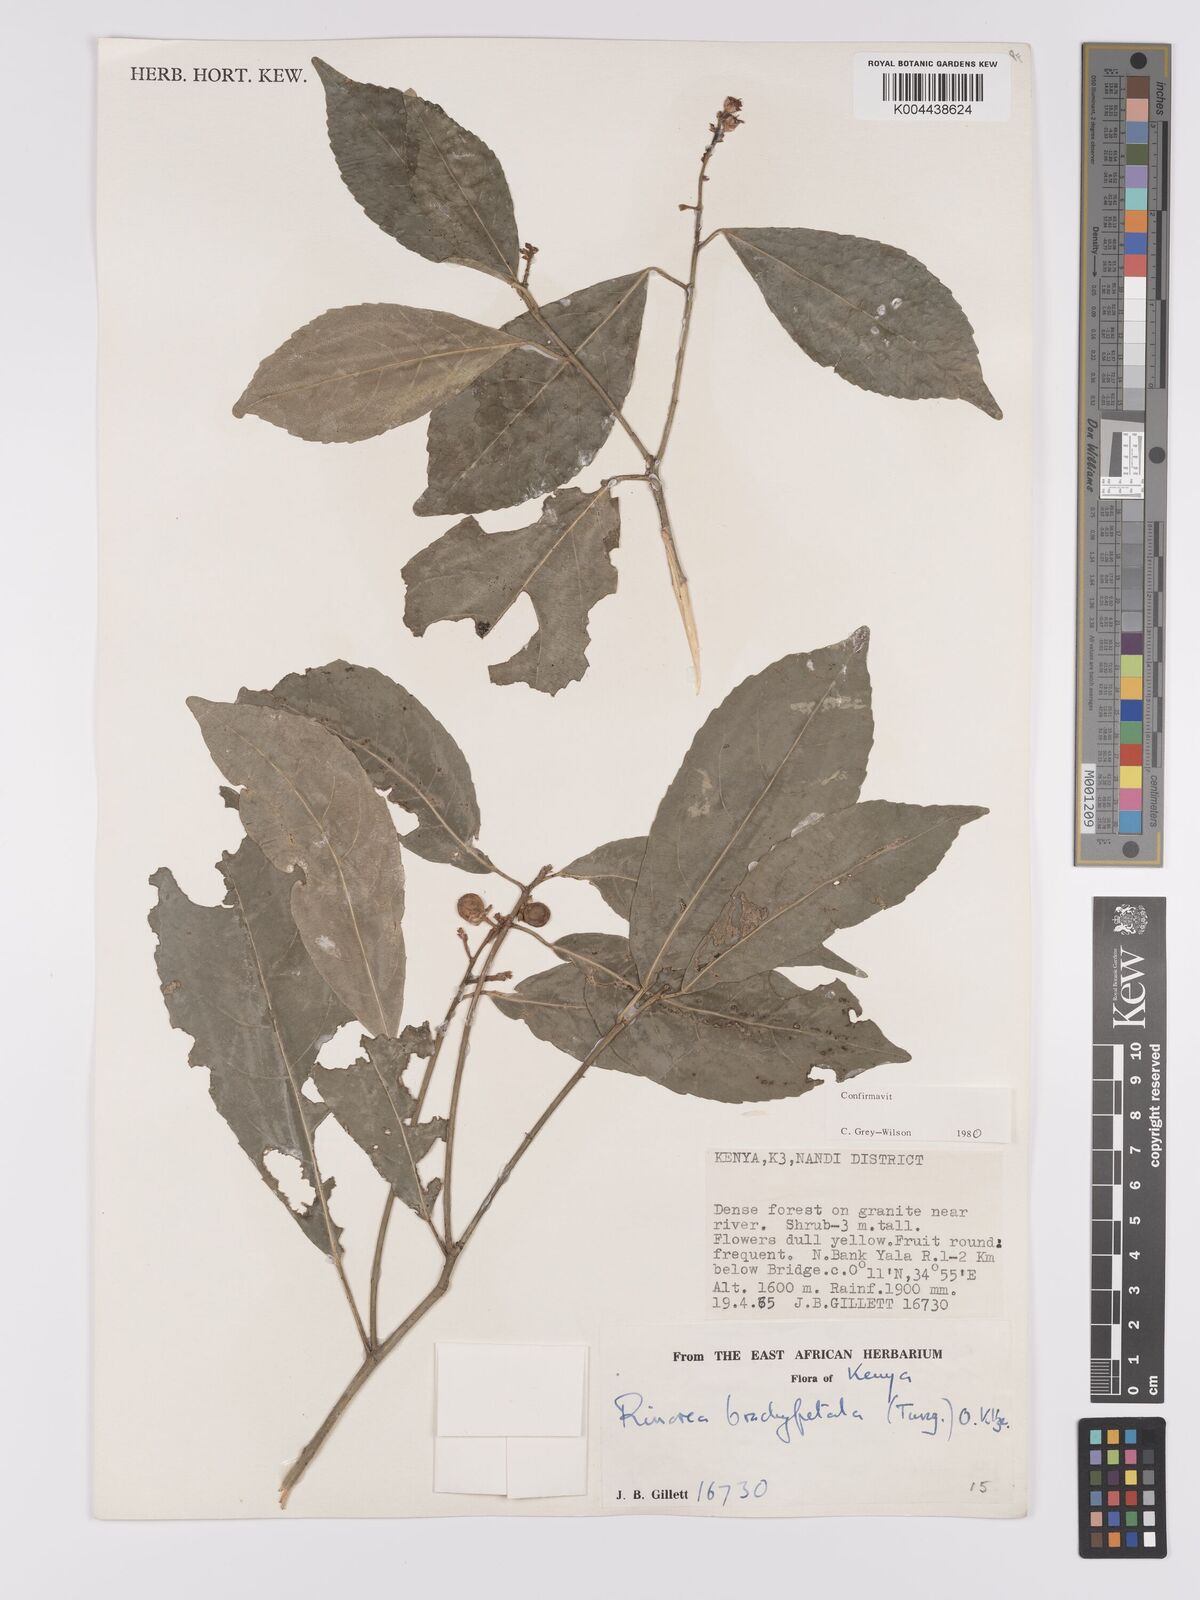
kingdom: Plantae
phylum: Tracheophyta
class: Magnoliopsida
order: Malpighiales
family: Violaceae
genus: Rinorea
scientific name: Rinorea brachypetala
